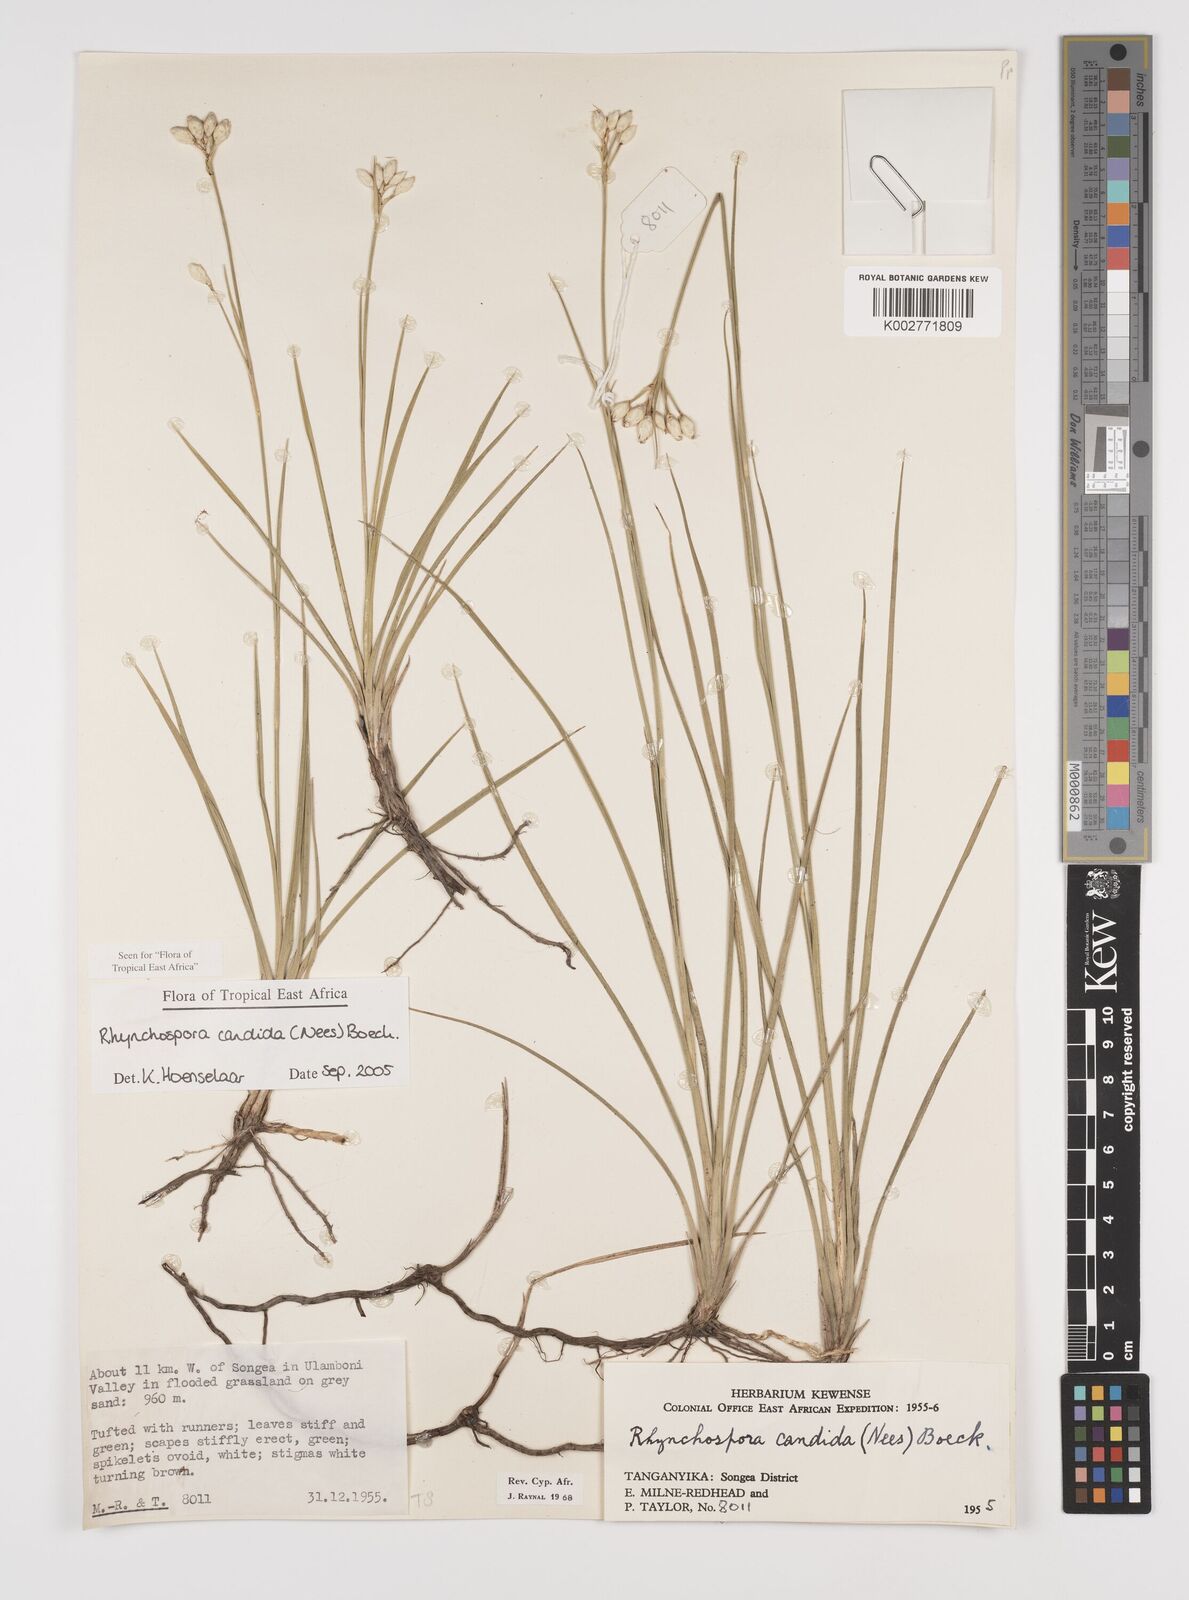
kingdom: Plantae
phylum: Tracheophyta
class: Liliopsida
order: Poales
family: Cyperaceae
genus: Rhynchospora
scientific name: Rhynchospora candida
